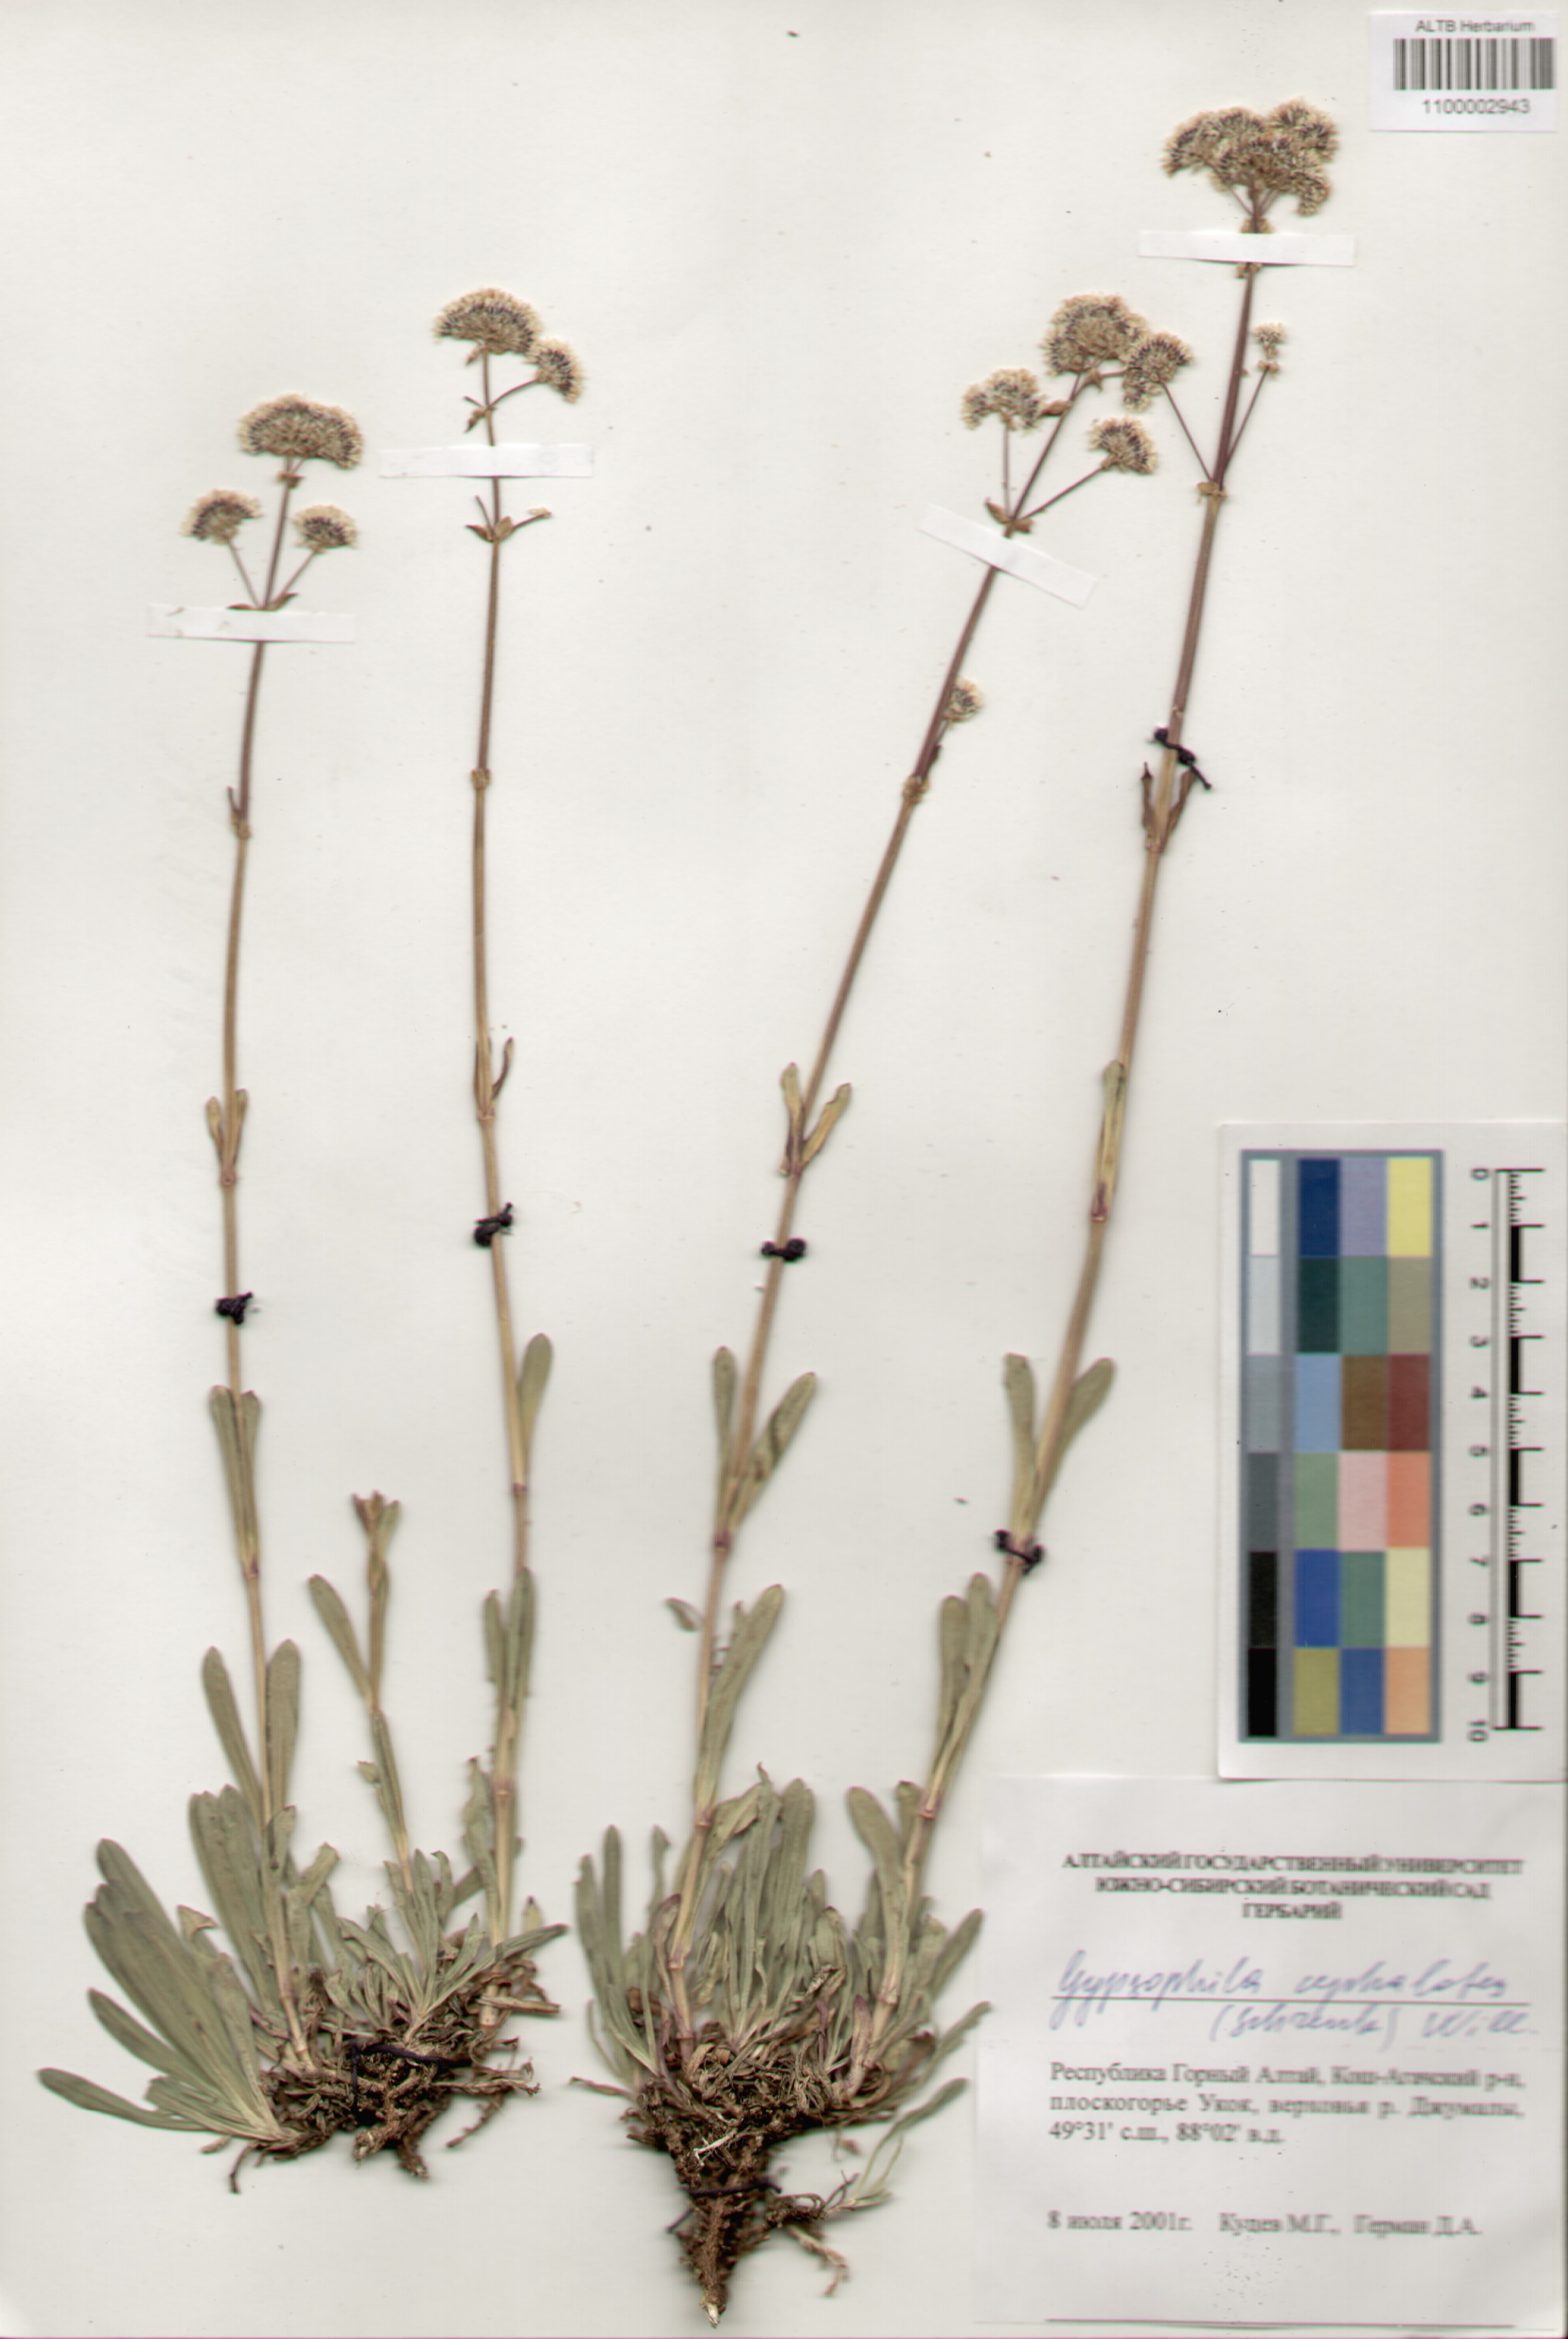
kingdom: Plantae
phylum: Tracheophyta
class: Magnoliopsida
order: Caryophyllales
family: Caryophyllaceae
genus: Gypsophila
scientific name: Gypsophila cephalotes
